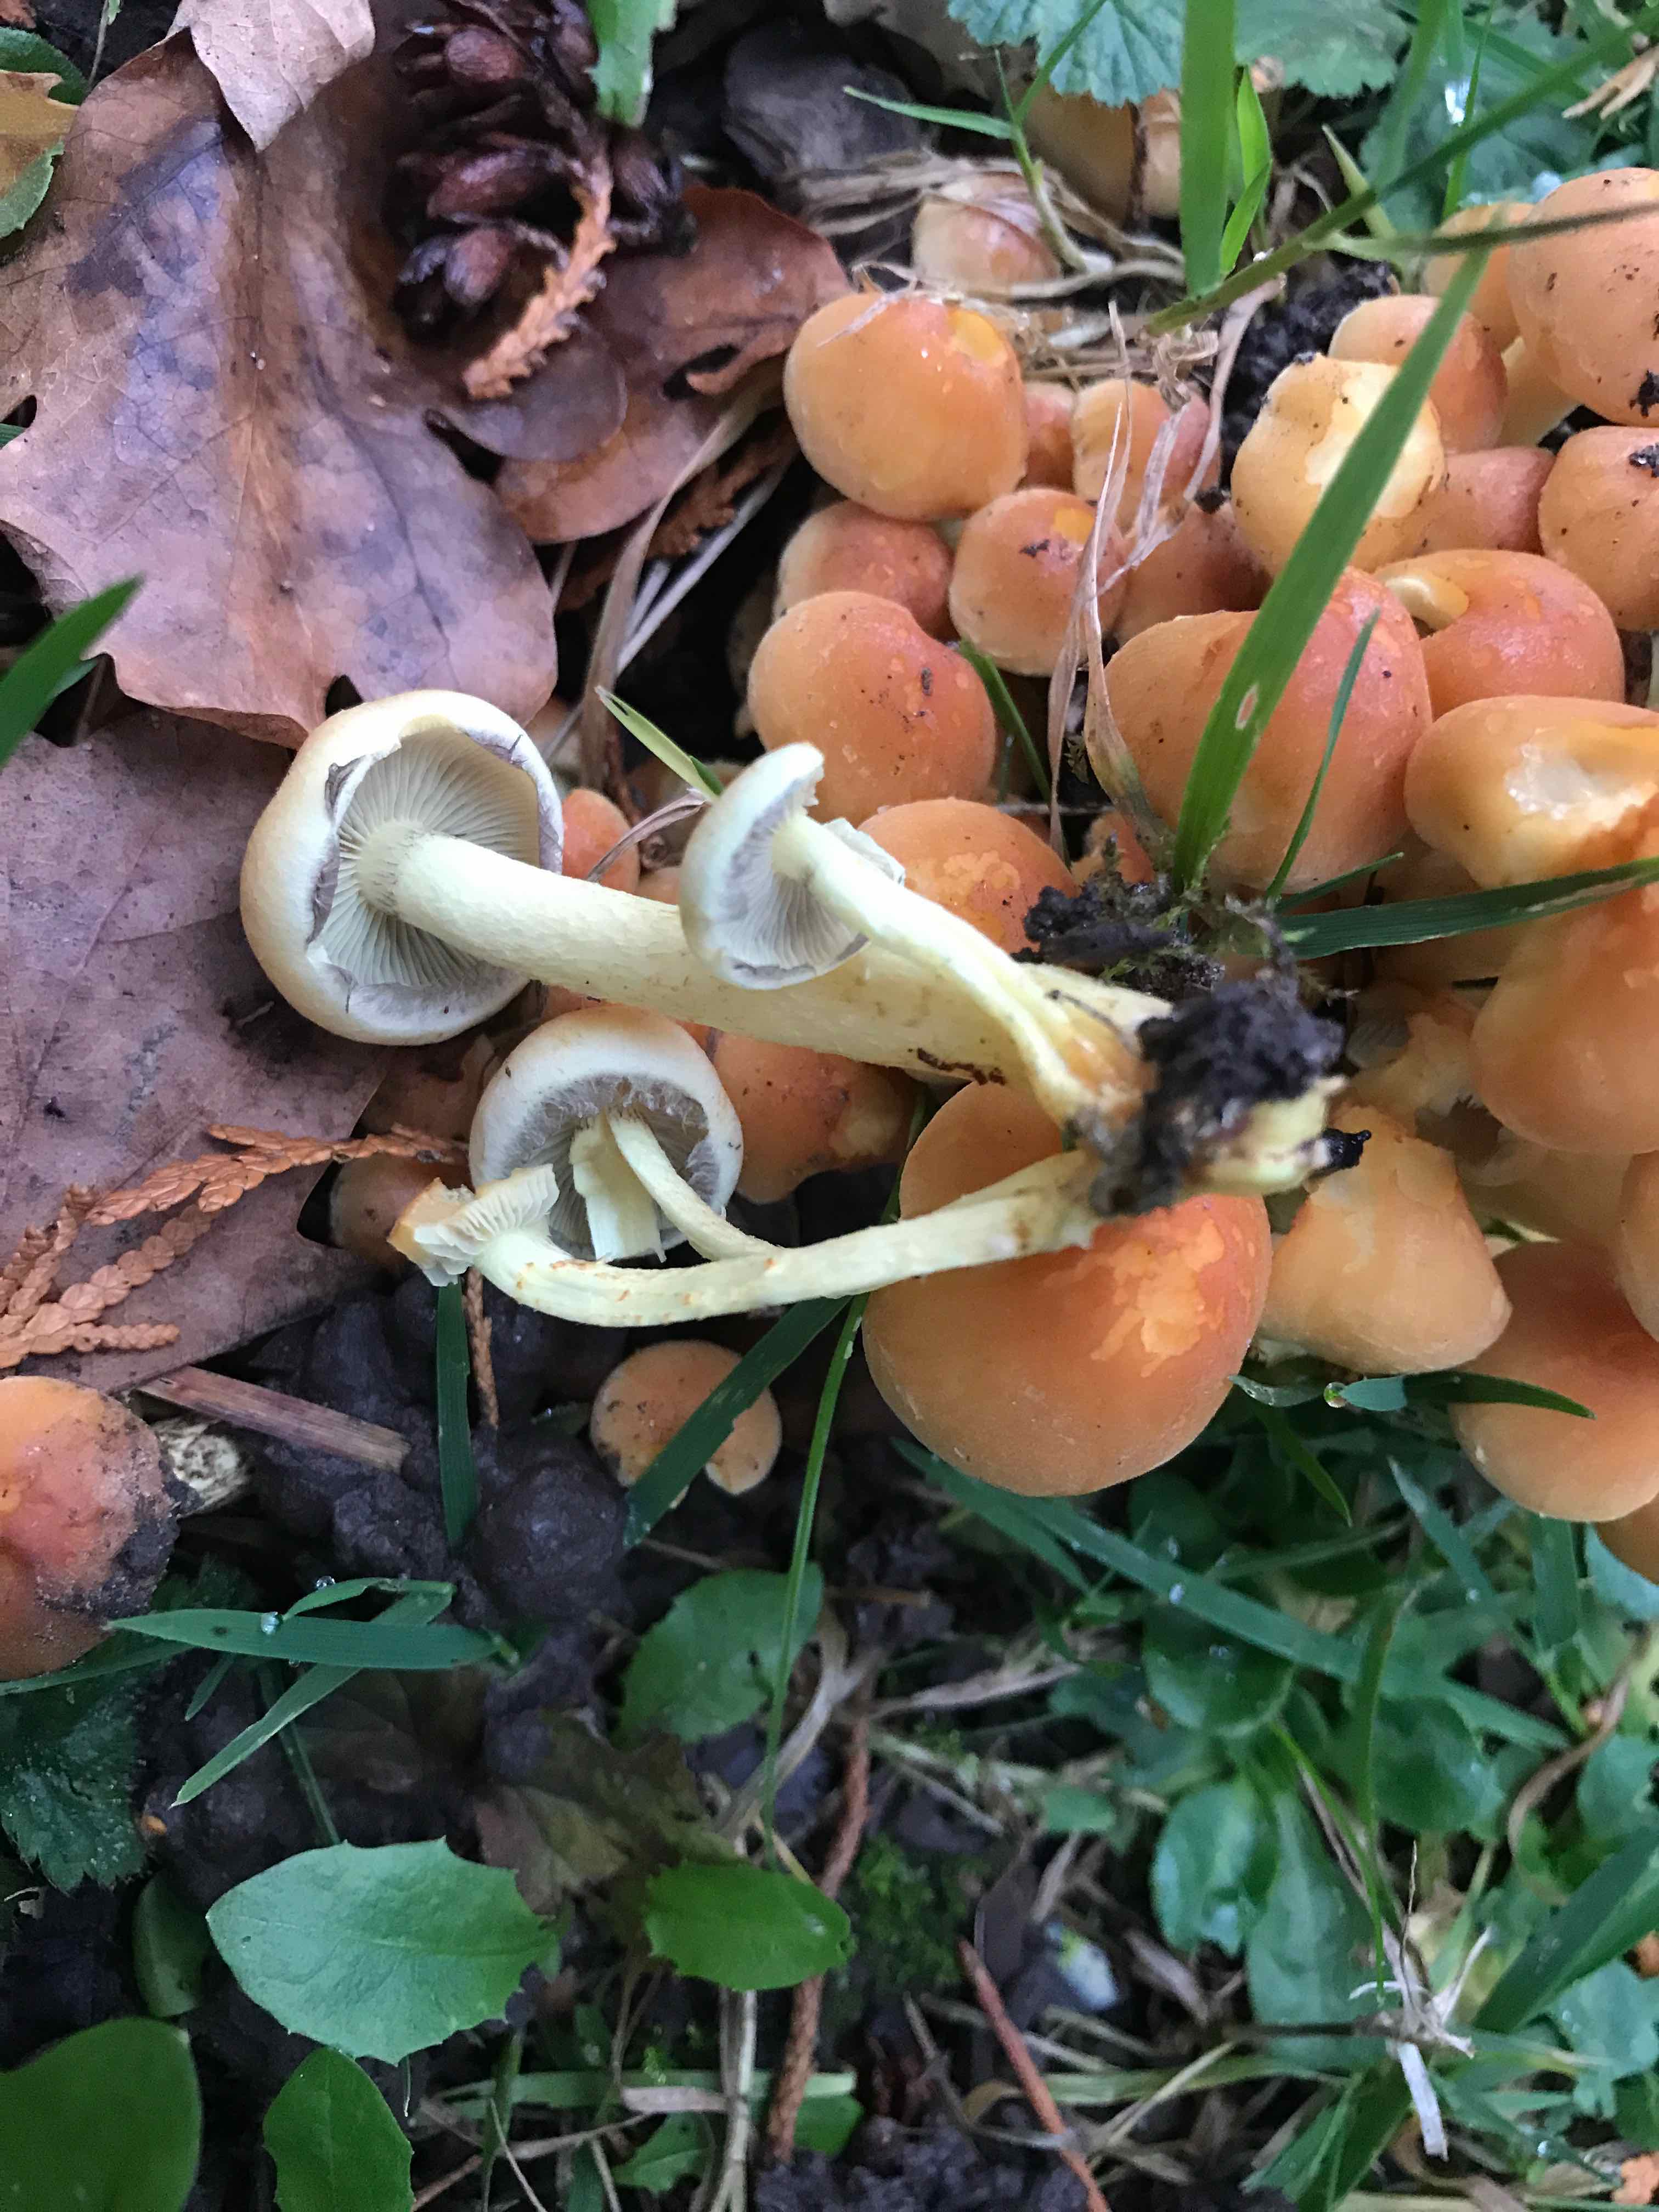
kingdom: Fungi
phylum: Basidiomycota
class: Agaricomycetes
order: Agaricales
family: Strophariaceae
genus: Hypholoma
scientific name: Hypholoma fasciculare
